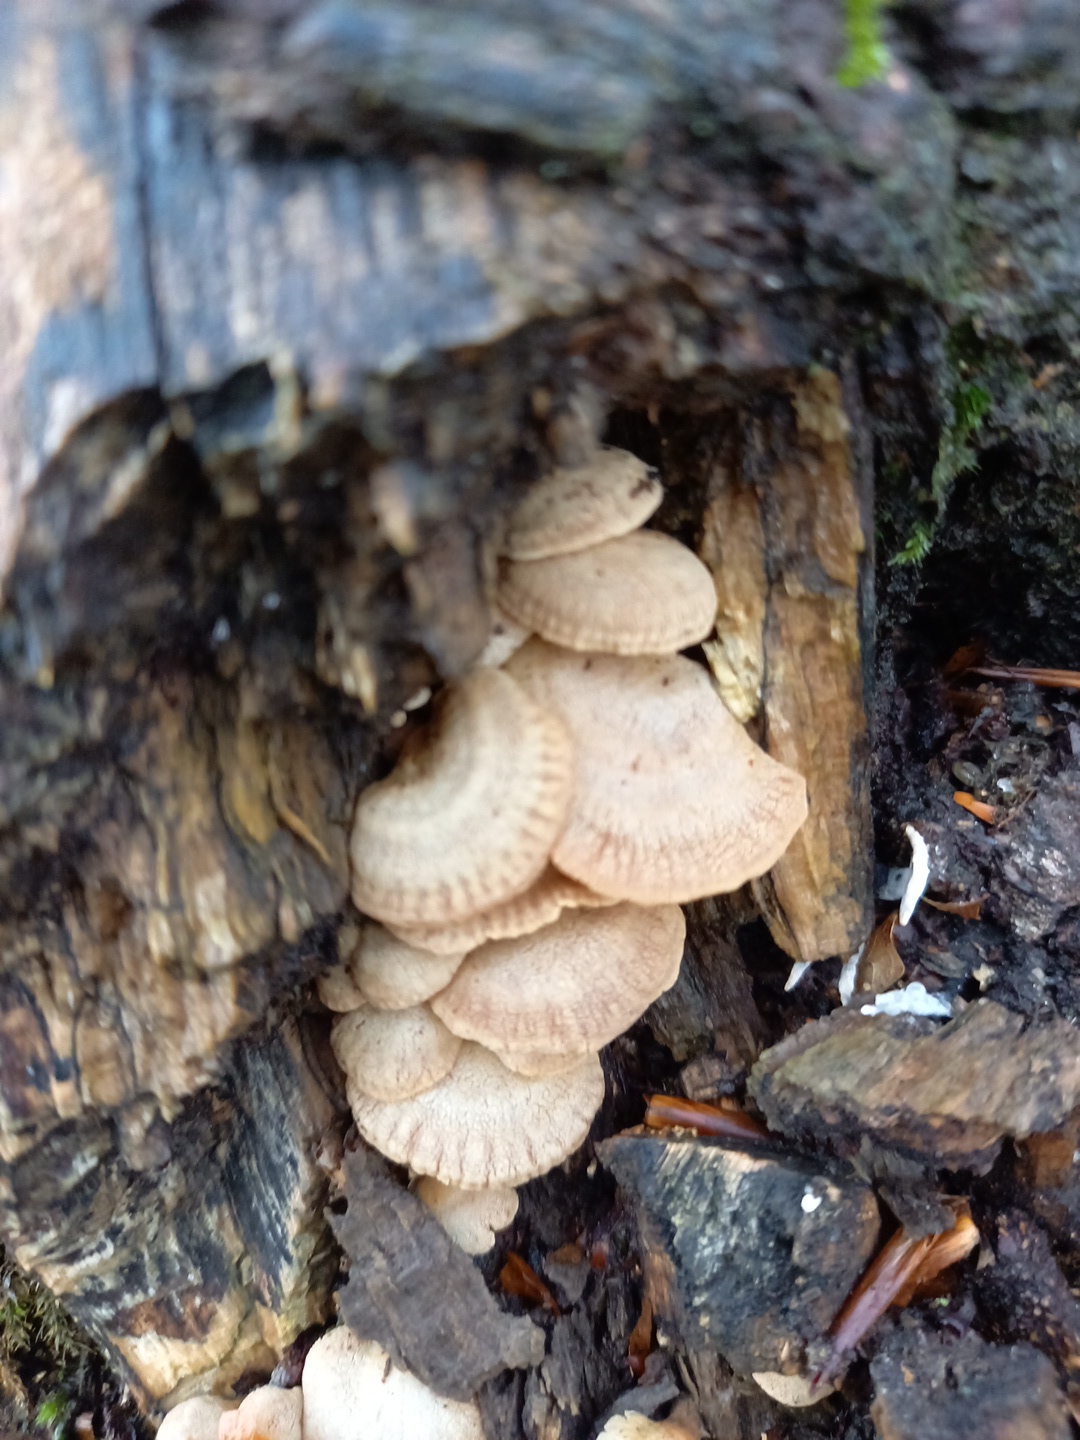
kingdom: Fungi
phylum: Basidiomycota
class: Agaricomycetes
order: Agaricales
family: Mycenaceae
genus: Panellus
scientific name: Panellus stipticus
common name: kliddet epaulethat
